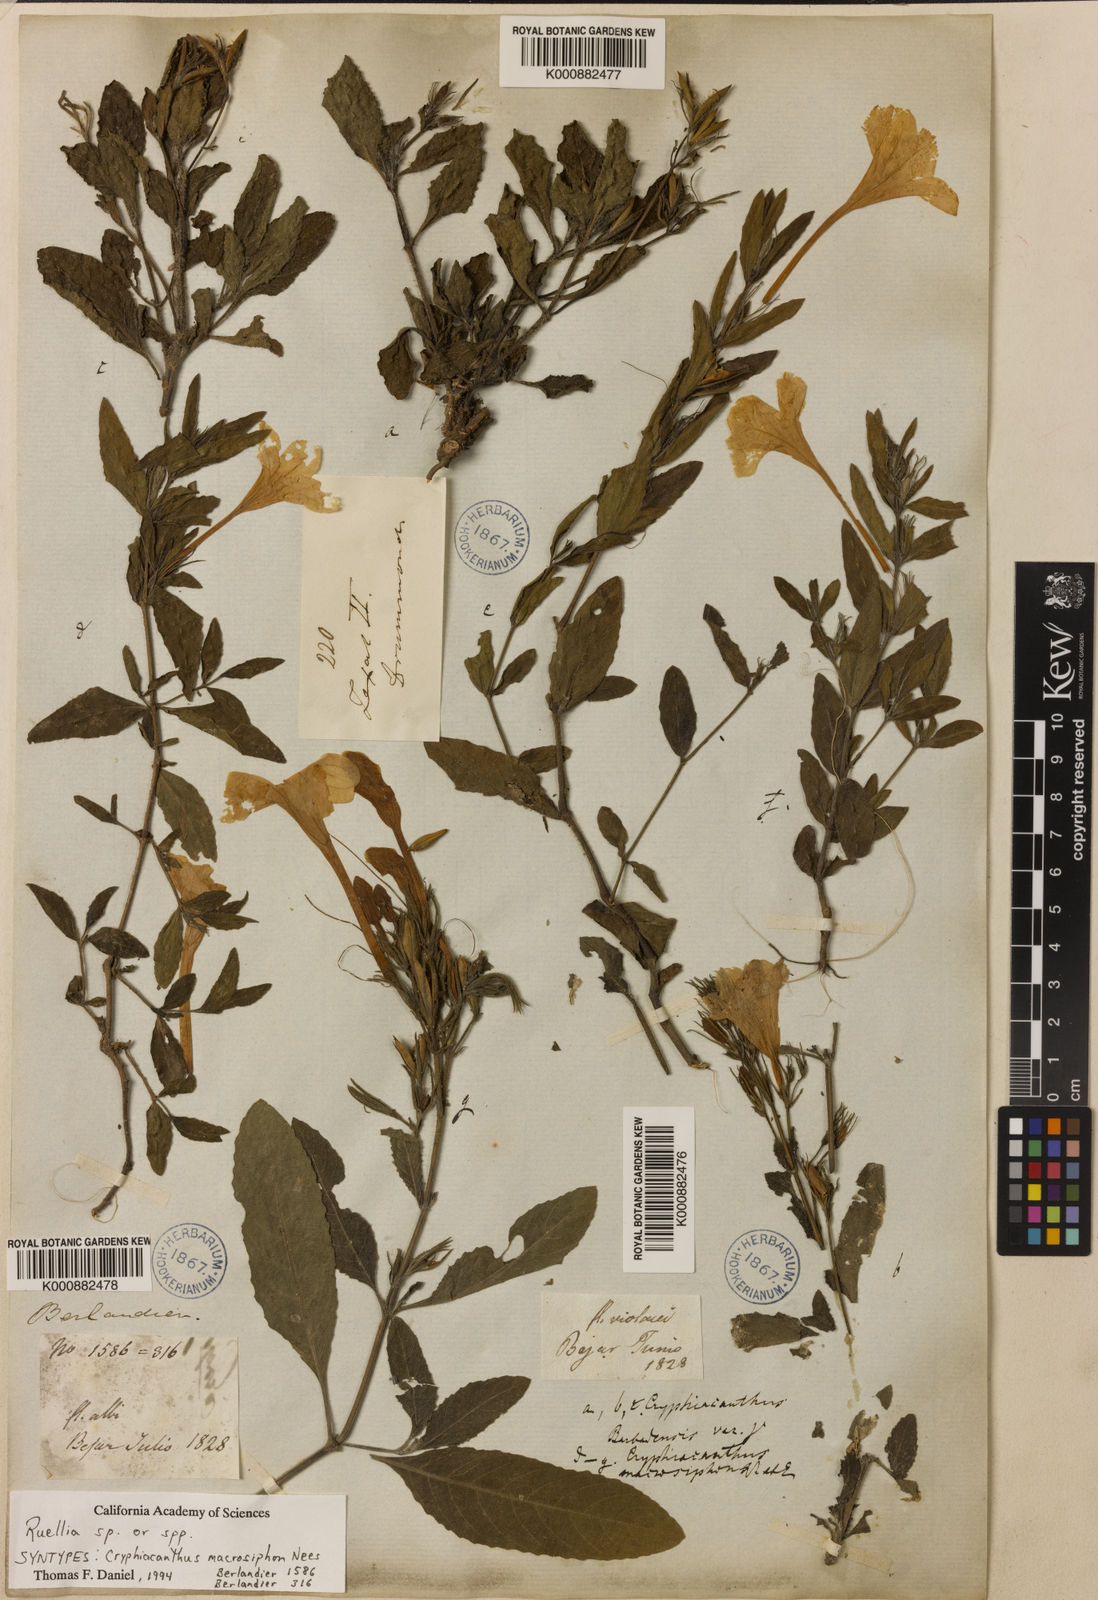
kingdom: Plantae
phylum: Tracheophyta
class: Magnoliopsida
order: Lamiales
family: Acanthaceae
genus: Ruellia
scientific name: Ruellia ciliatiflora
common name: Hairyflower wild petunia
